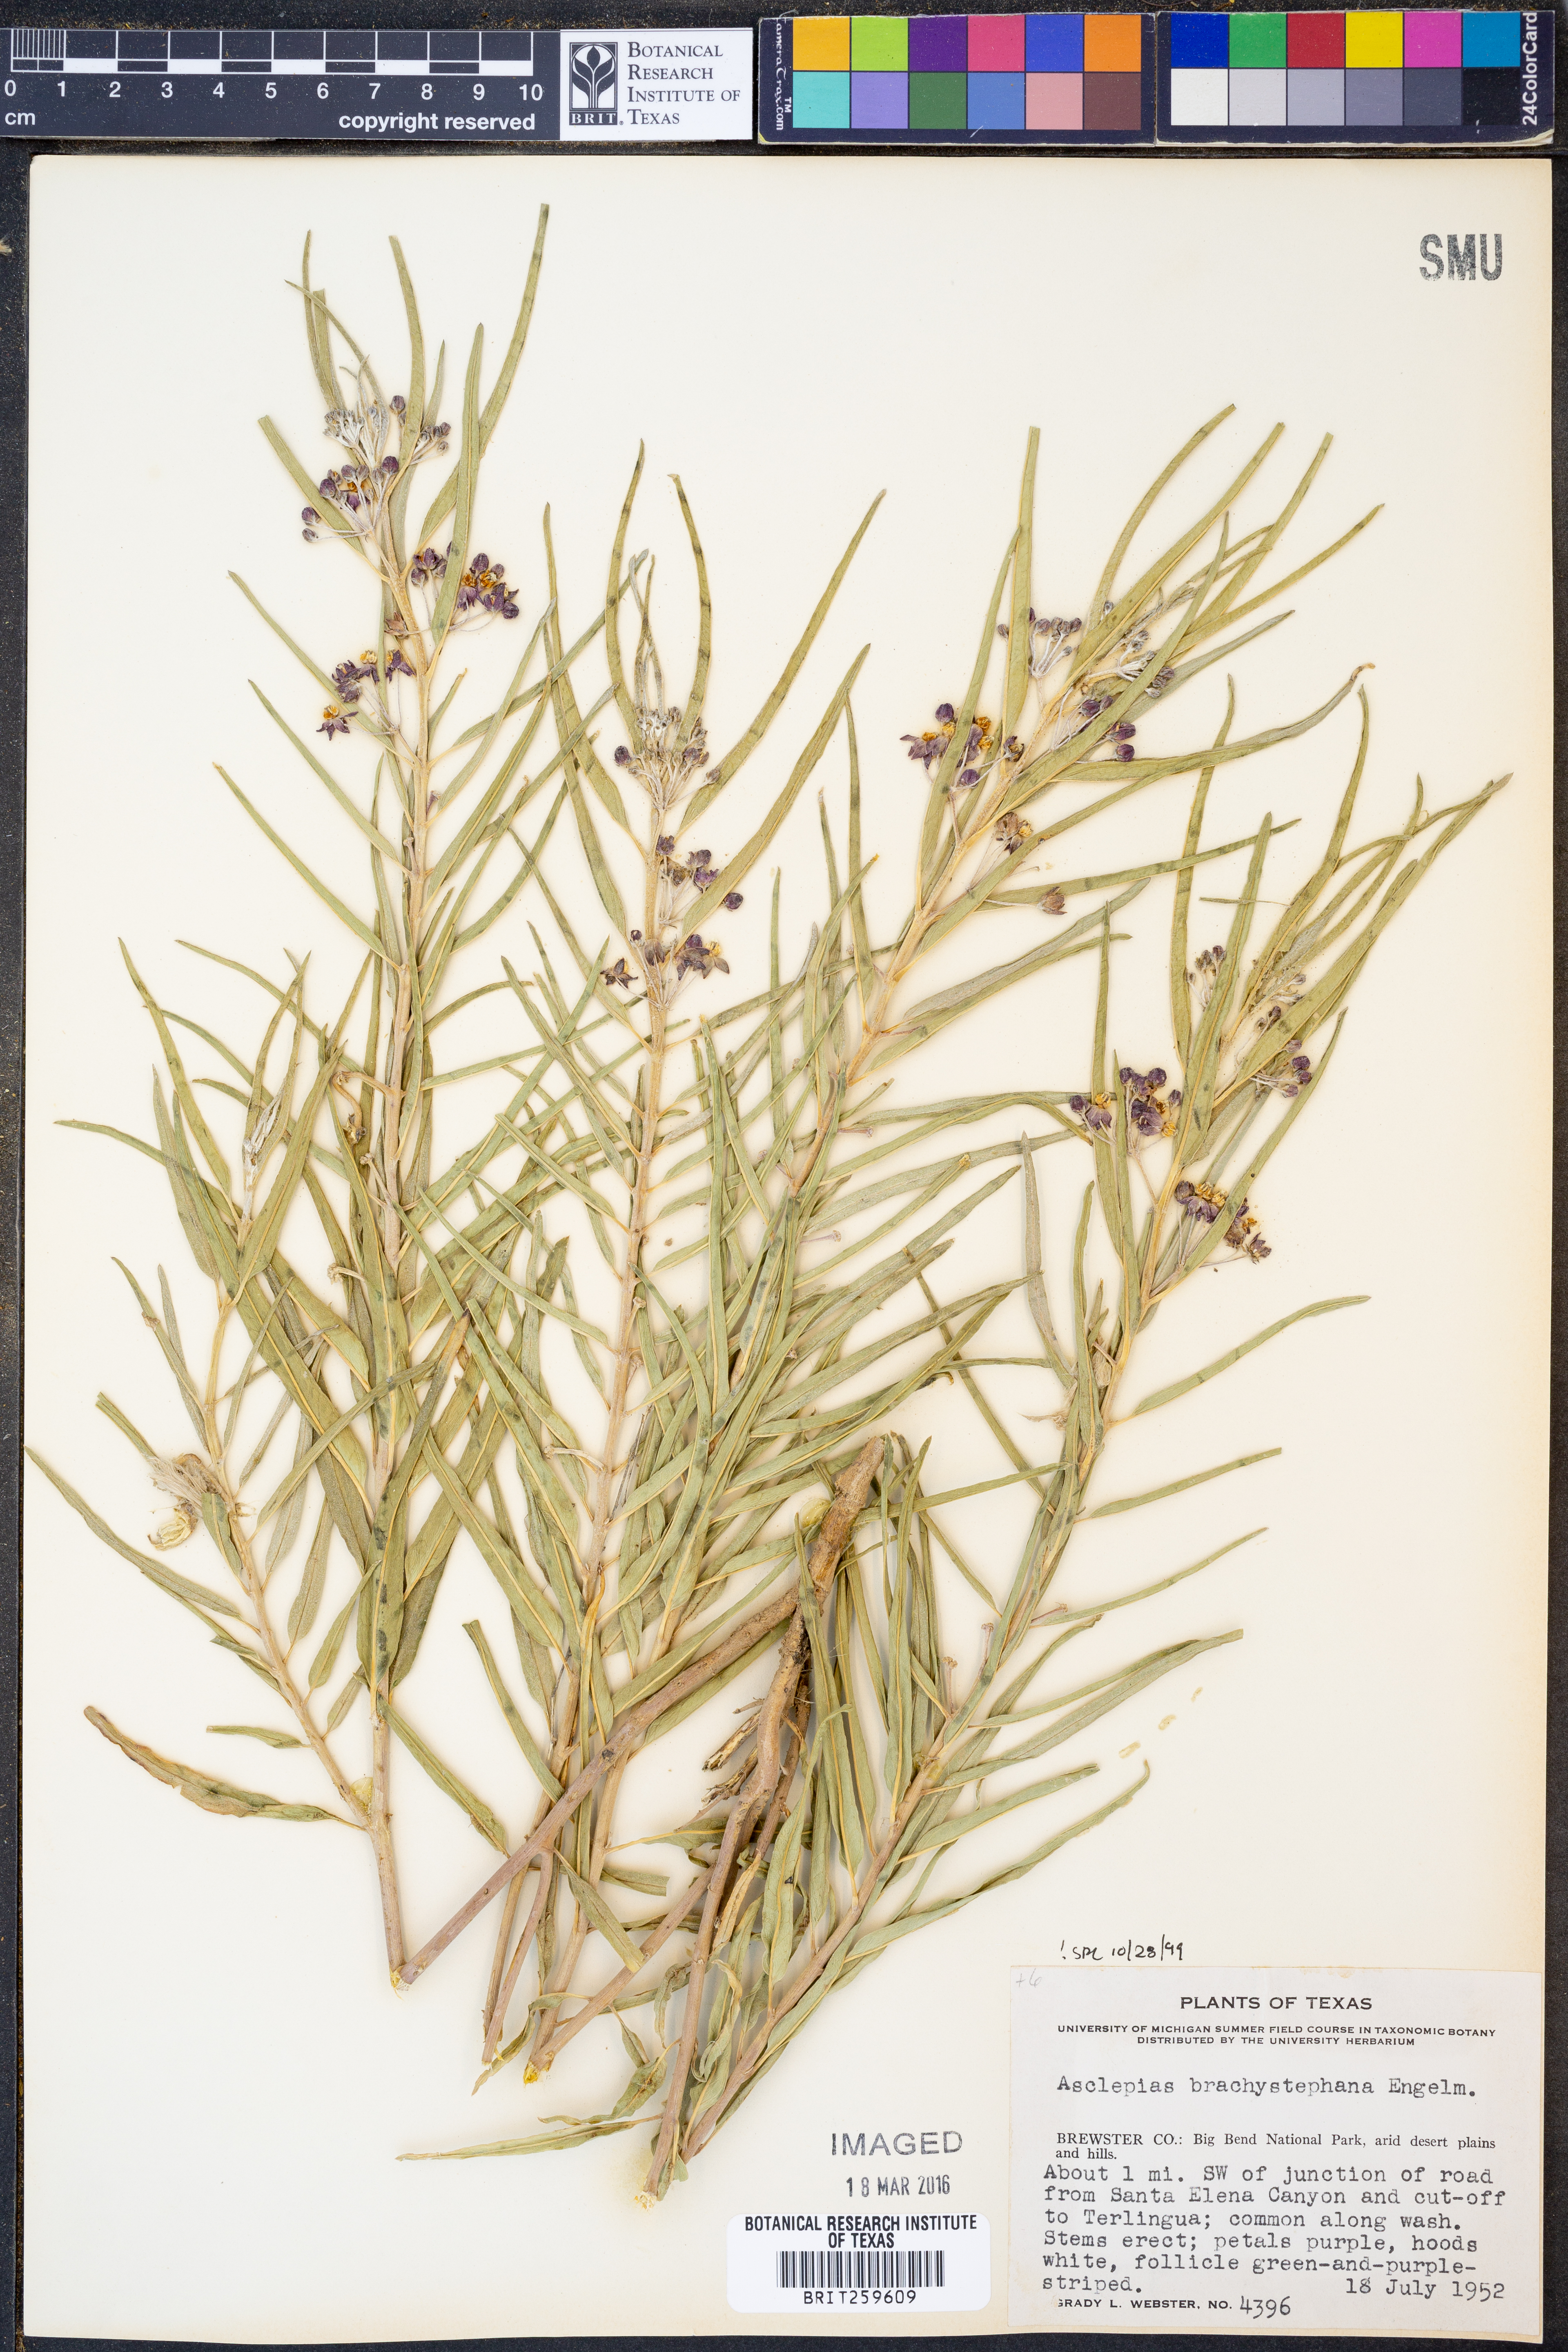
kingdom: Plantae
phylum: Tracheophyta
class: Magnoliopsida
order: Gentianales
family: Apocynaceae
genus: Asclepias
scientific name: Asclepias brachystephana
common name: Shortcrown milkweed
